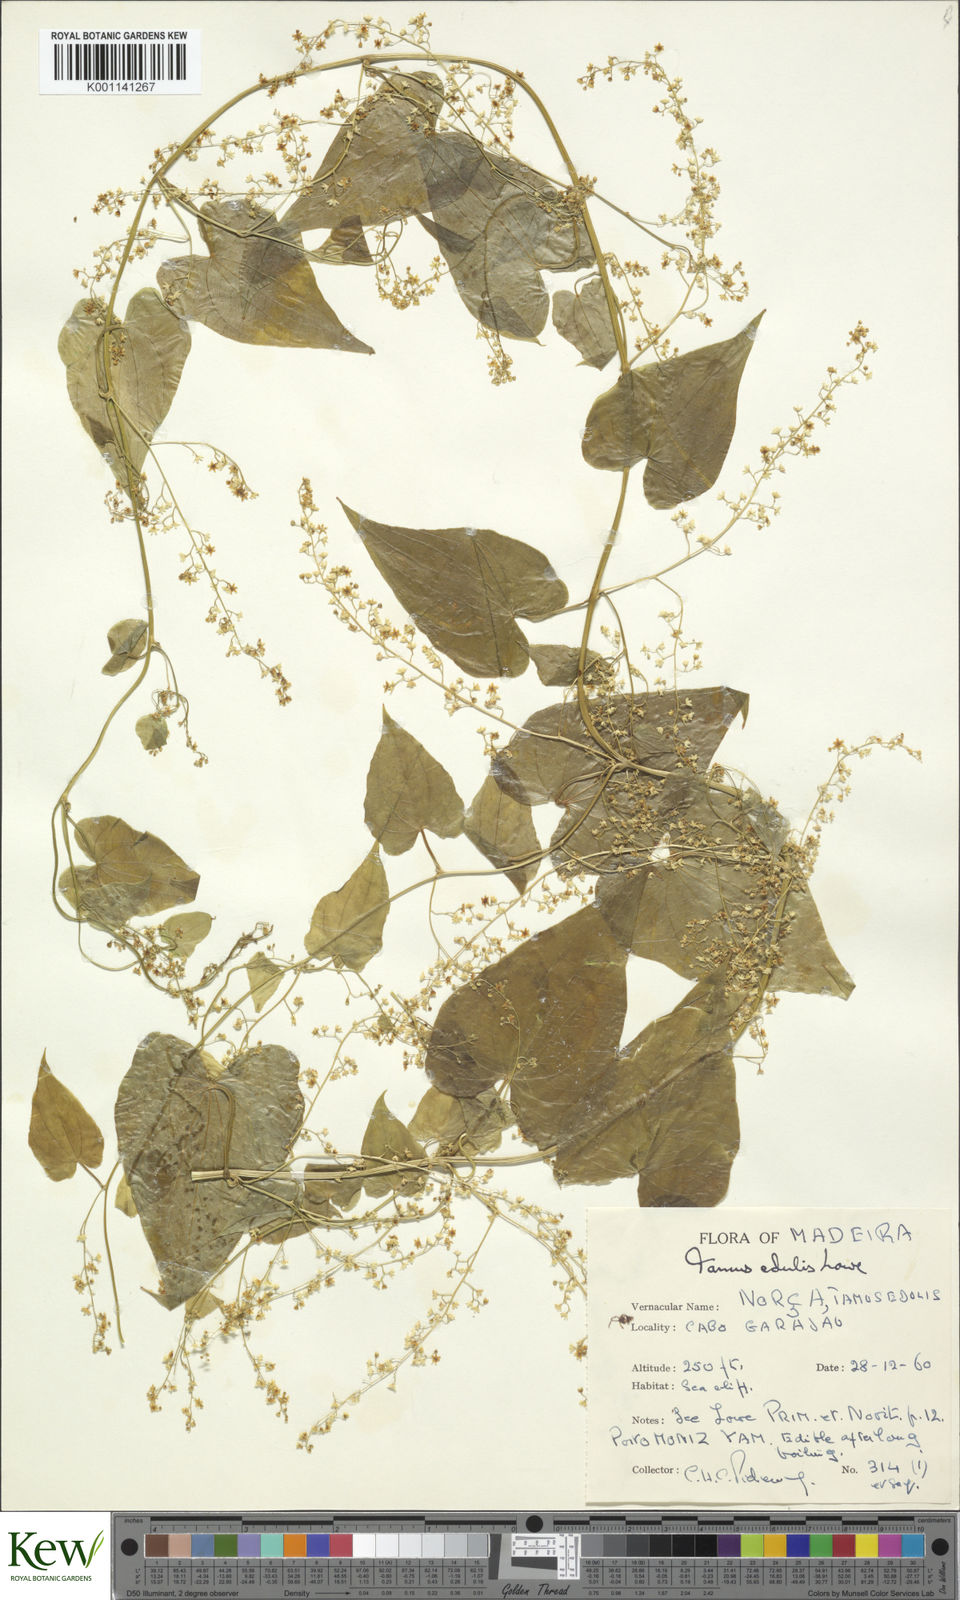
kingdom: Plantae
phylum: Tracheophyta
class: Liliopsida
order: Dioscoreales
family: Dioscoreaceae
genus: Dioscorea
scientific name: Dioscorea
